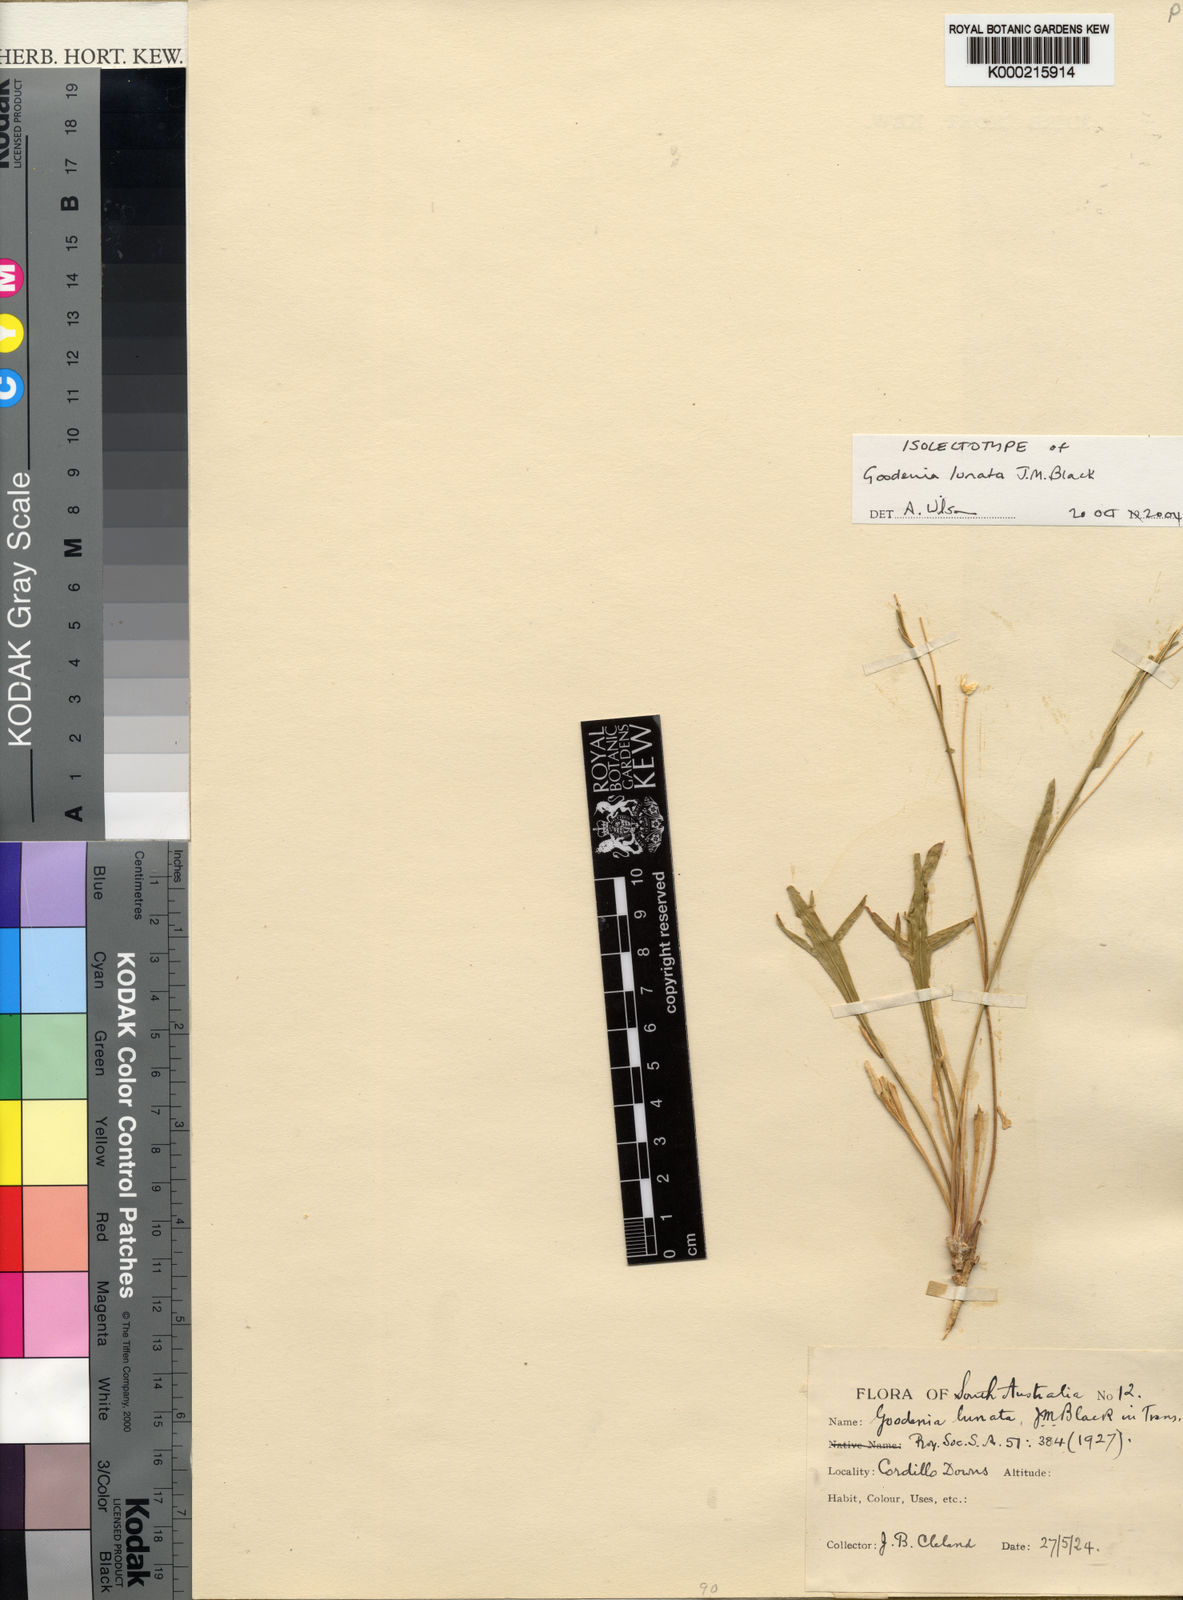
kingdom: Plantae
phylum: Tracheophyta
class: Magnoliopsida
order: Asterales
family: Goodeniaceae
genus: Goodenia
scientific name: Goodenia lunata
